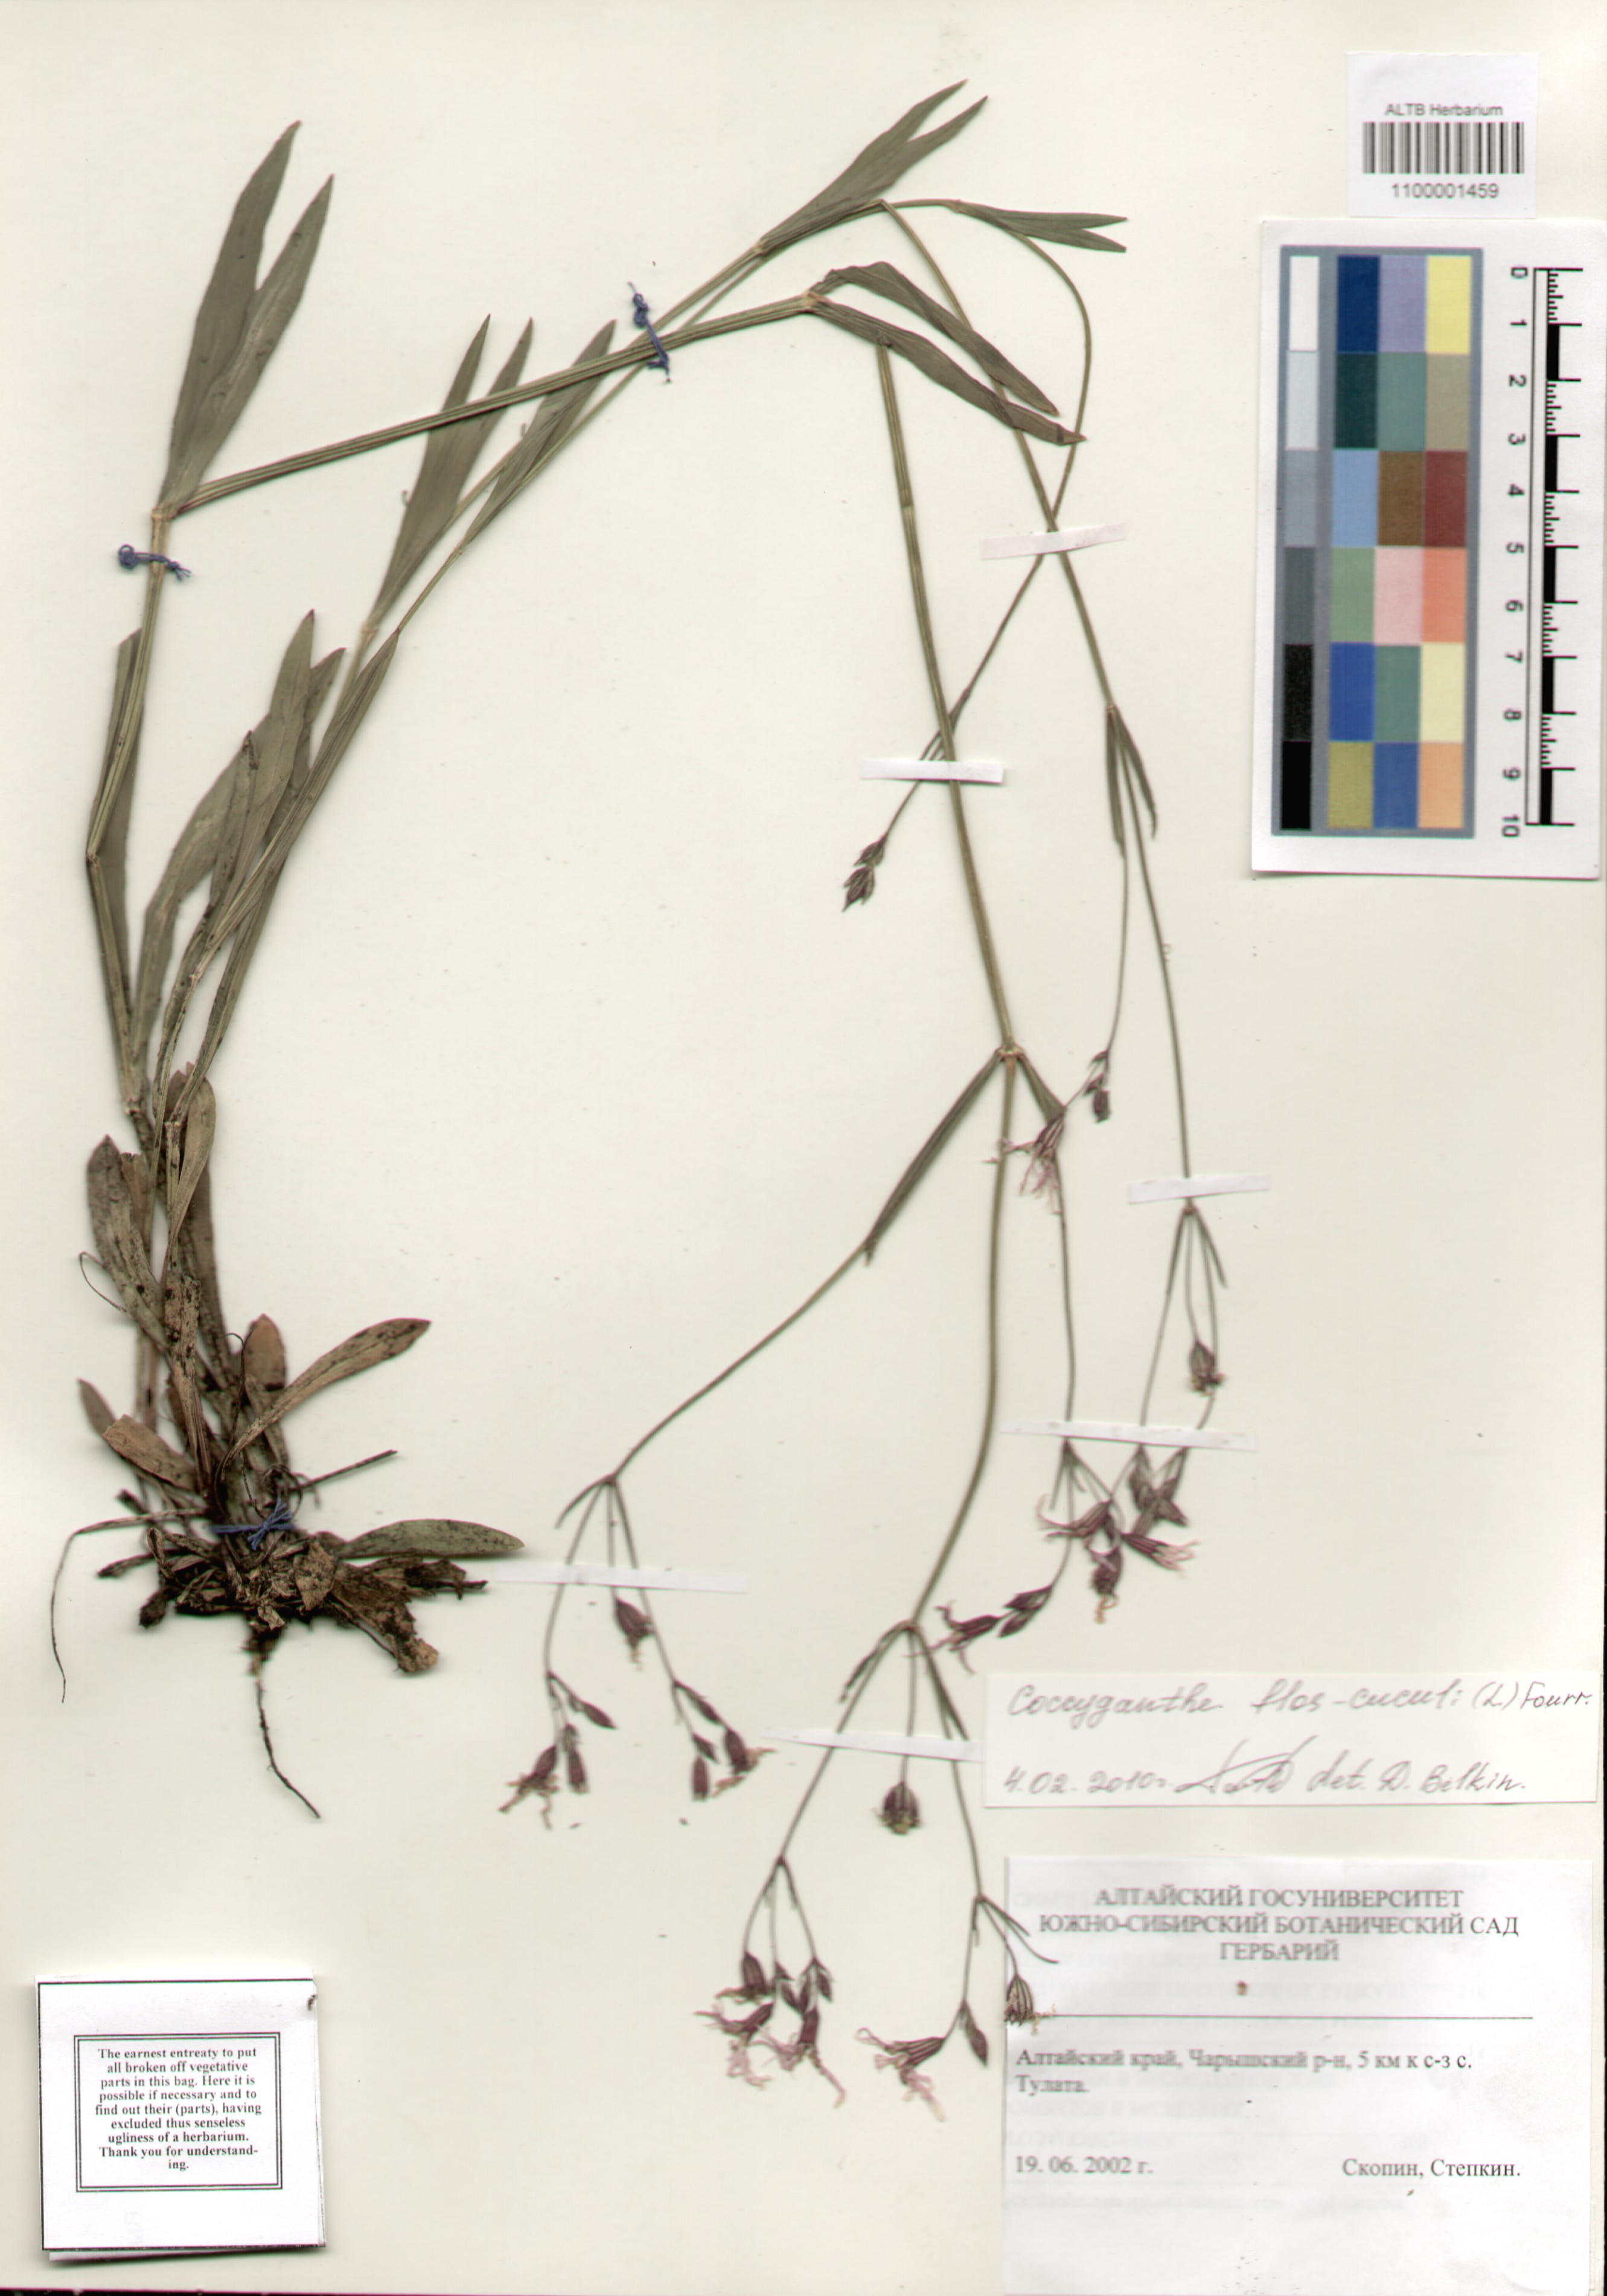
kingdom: Plantae
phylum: Tracheophyta
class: Magnoliopsida
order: Caryophyllales
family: Caryophyllaceae
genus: Silene
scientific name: Silene flos-cuculi
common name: Ragged-robin
